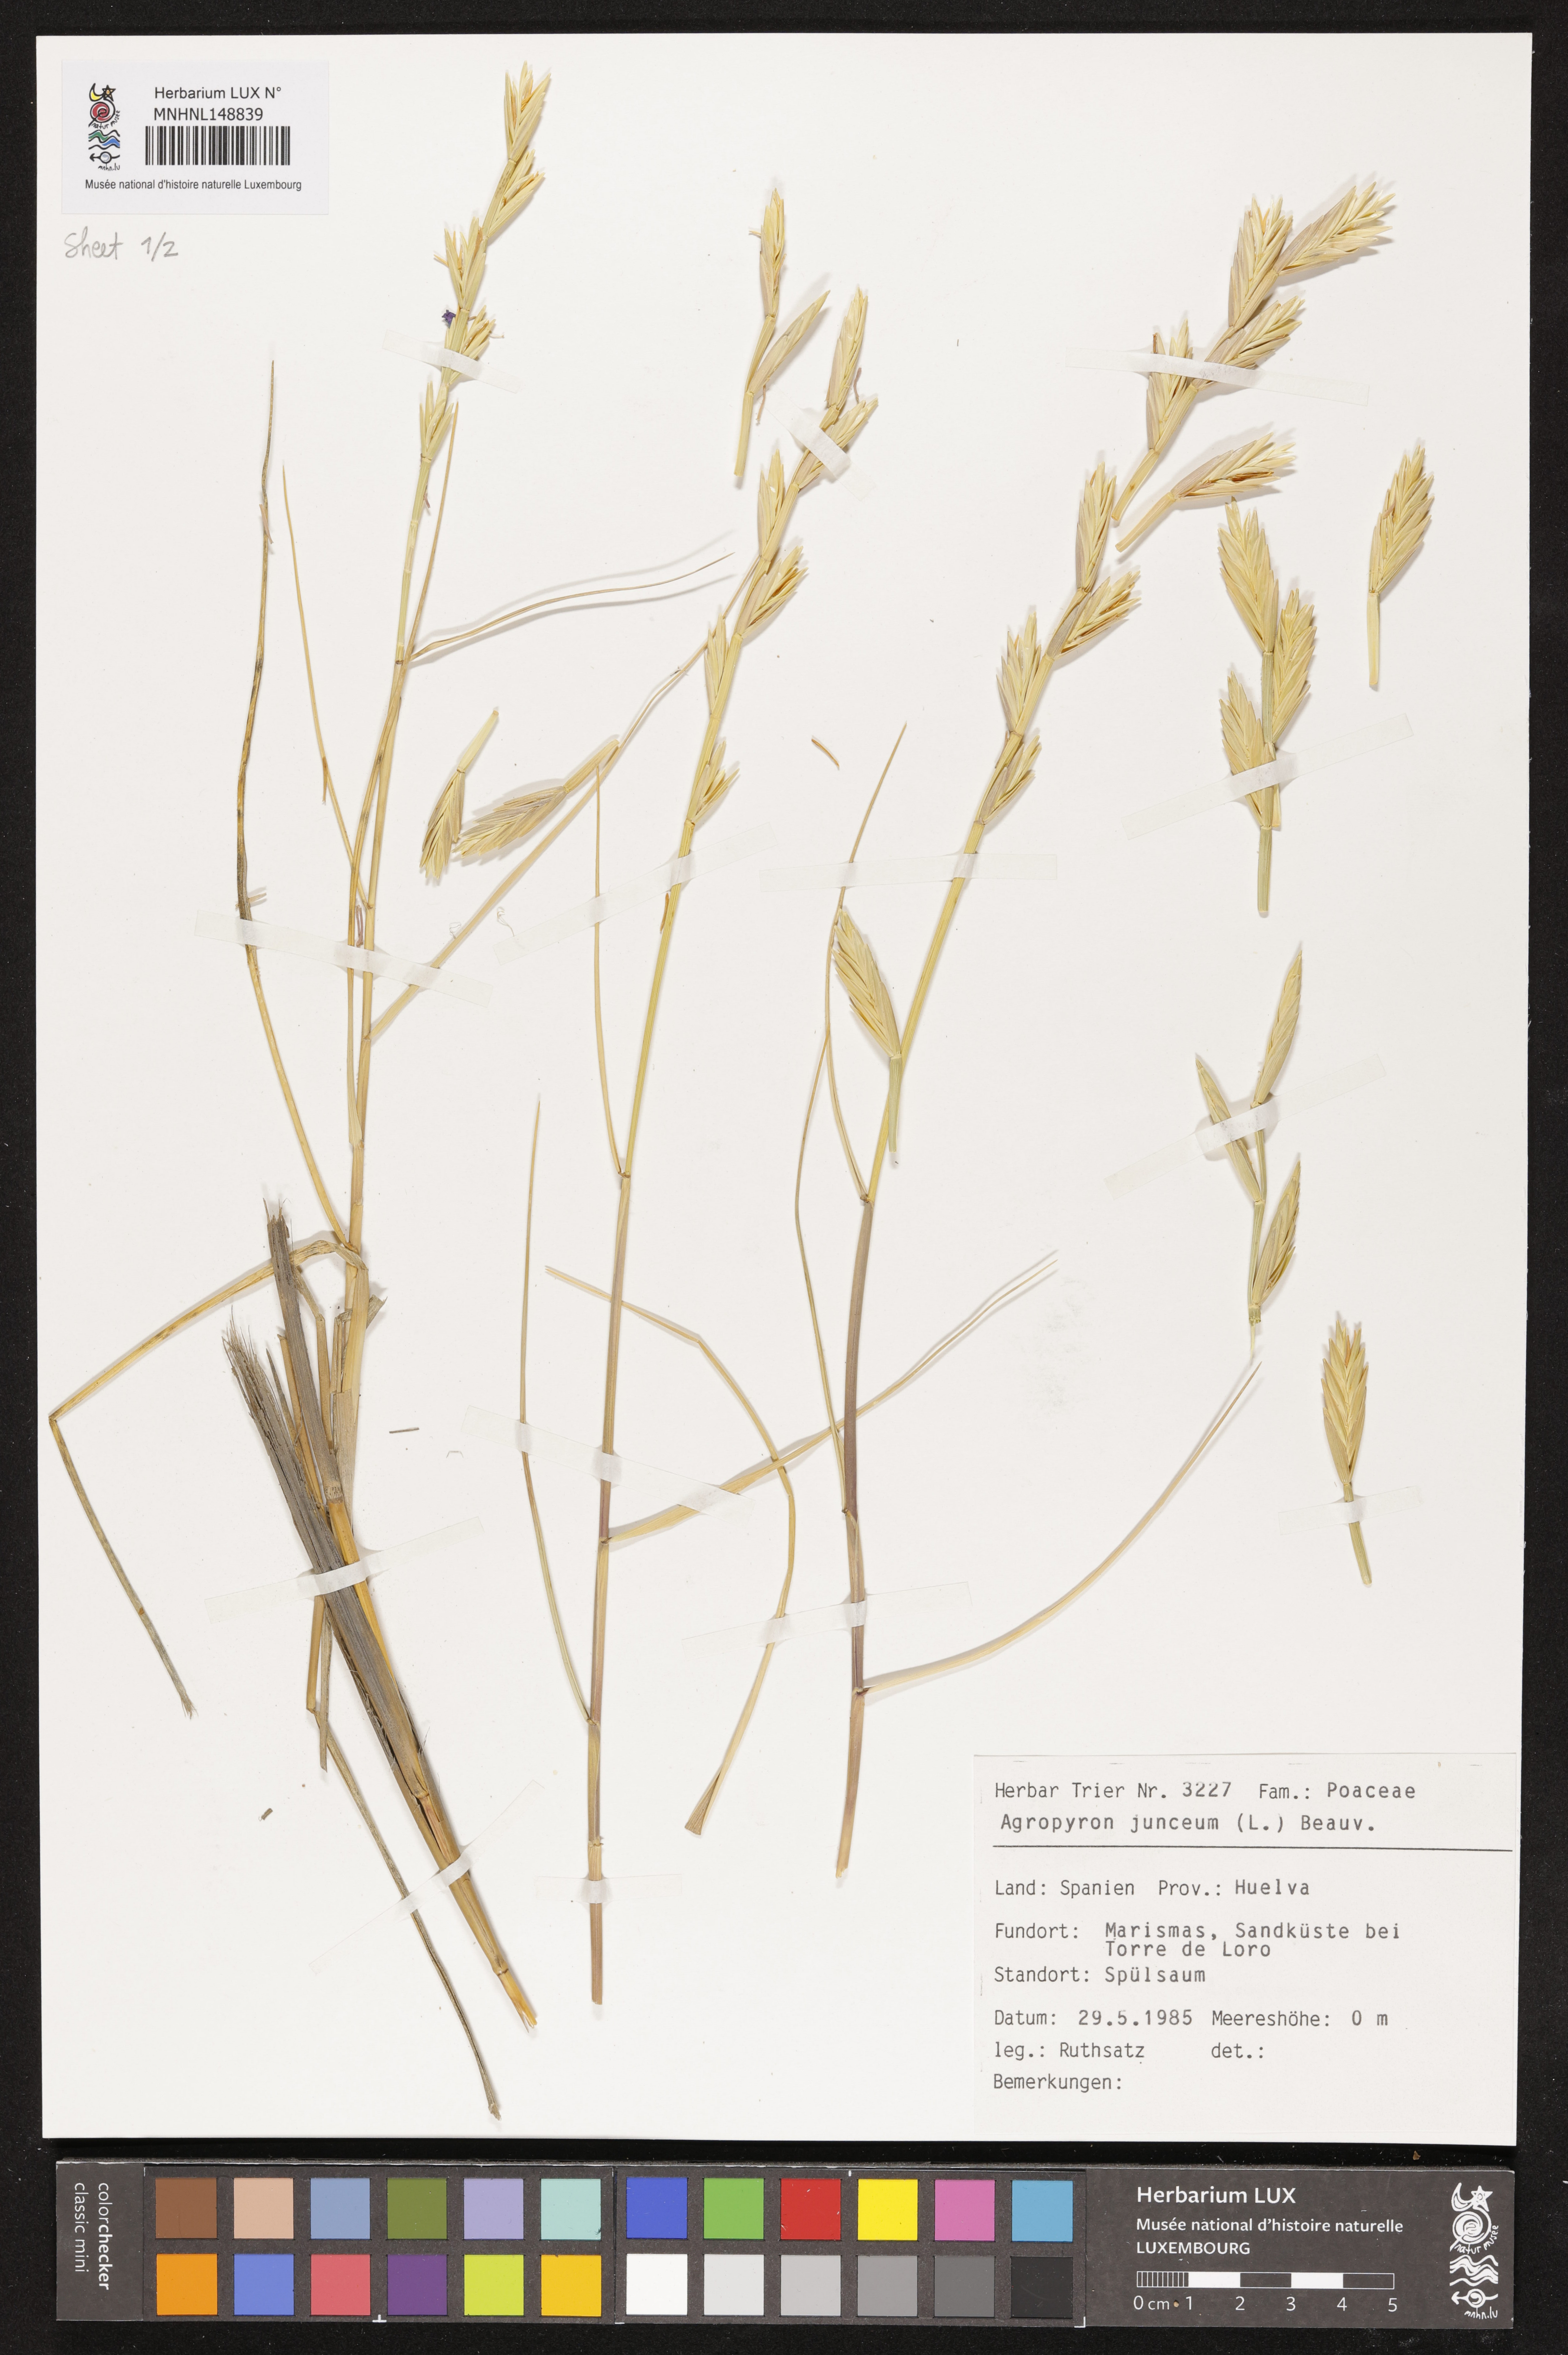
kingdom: Plantae
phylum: Tracheophyta
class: Liliopsida
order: Poales
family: Poaceae
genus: Thinopyrum
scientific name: Thinopyrum junceum
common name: Russian wheatgrass
